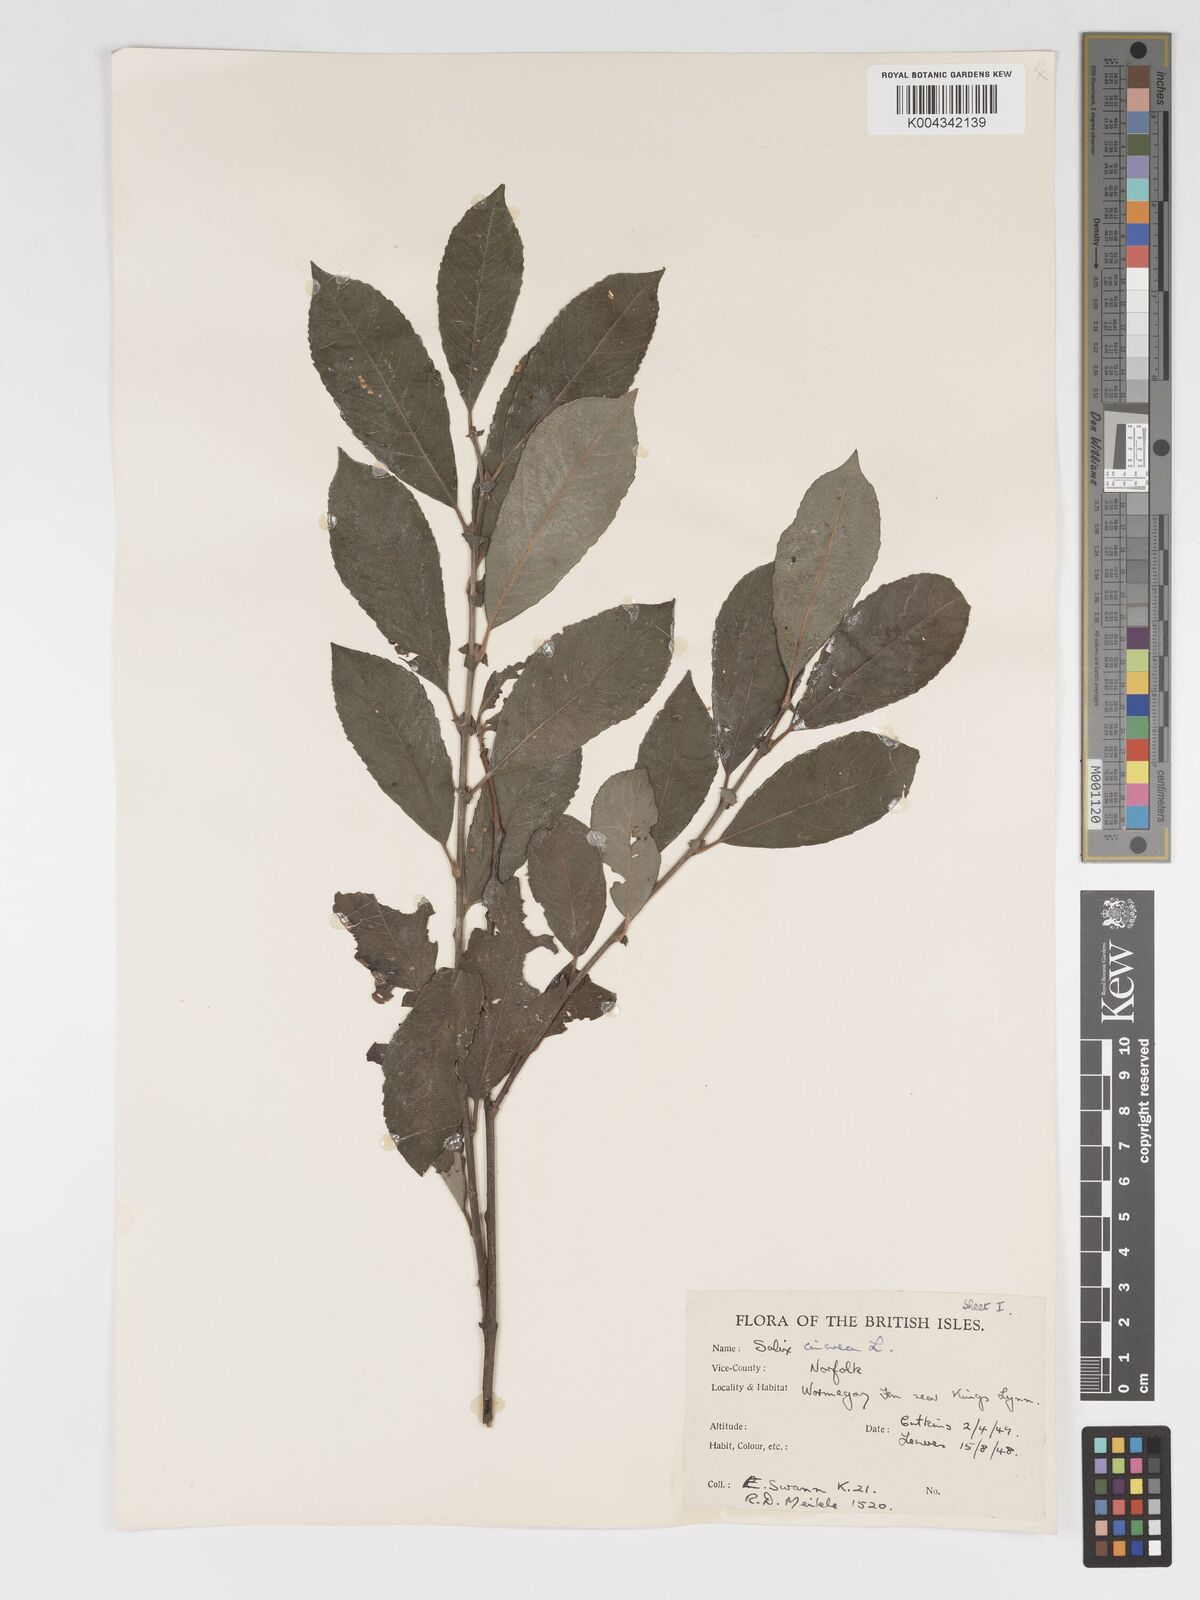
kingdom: Plantae
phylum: Tracheophyta
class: Magnoliopsida
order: Malpighiales
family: Salicaceae
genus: Salix
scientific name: Salix
